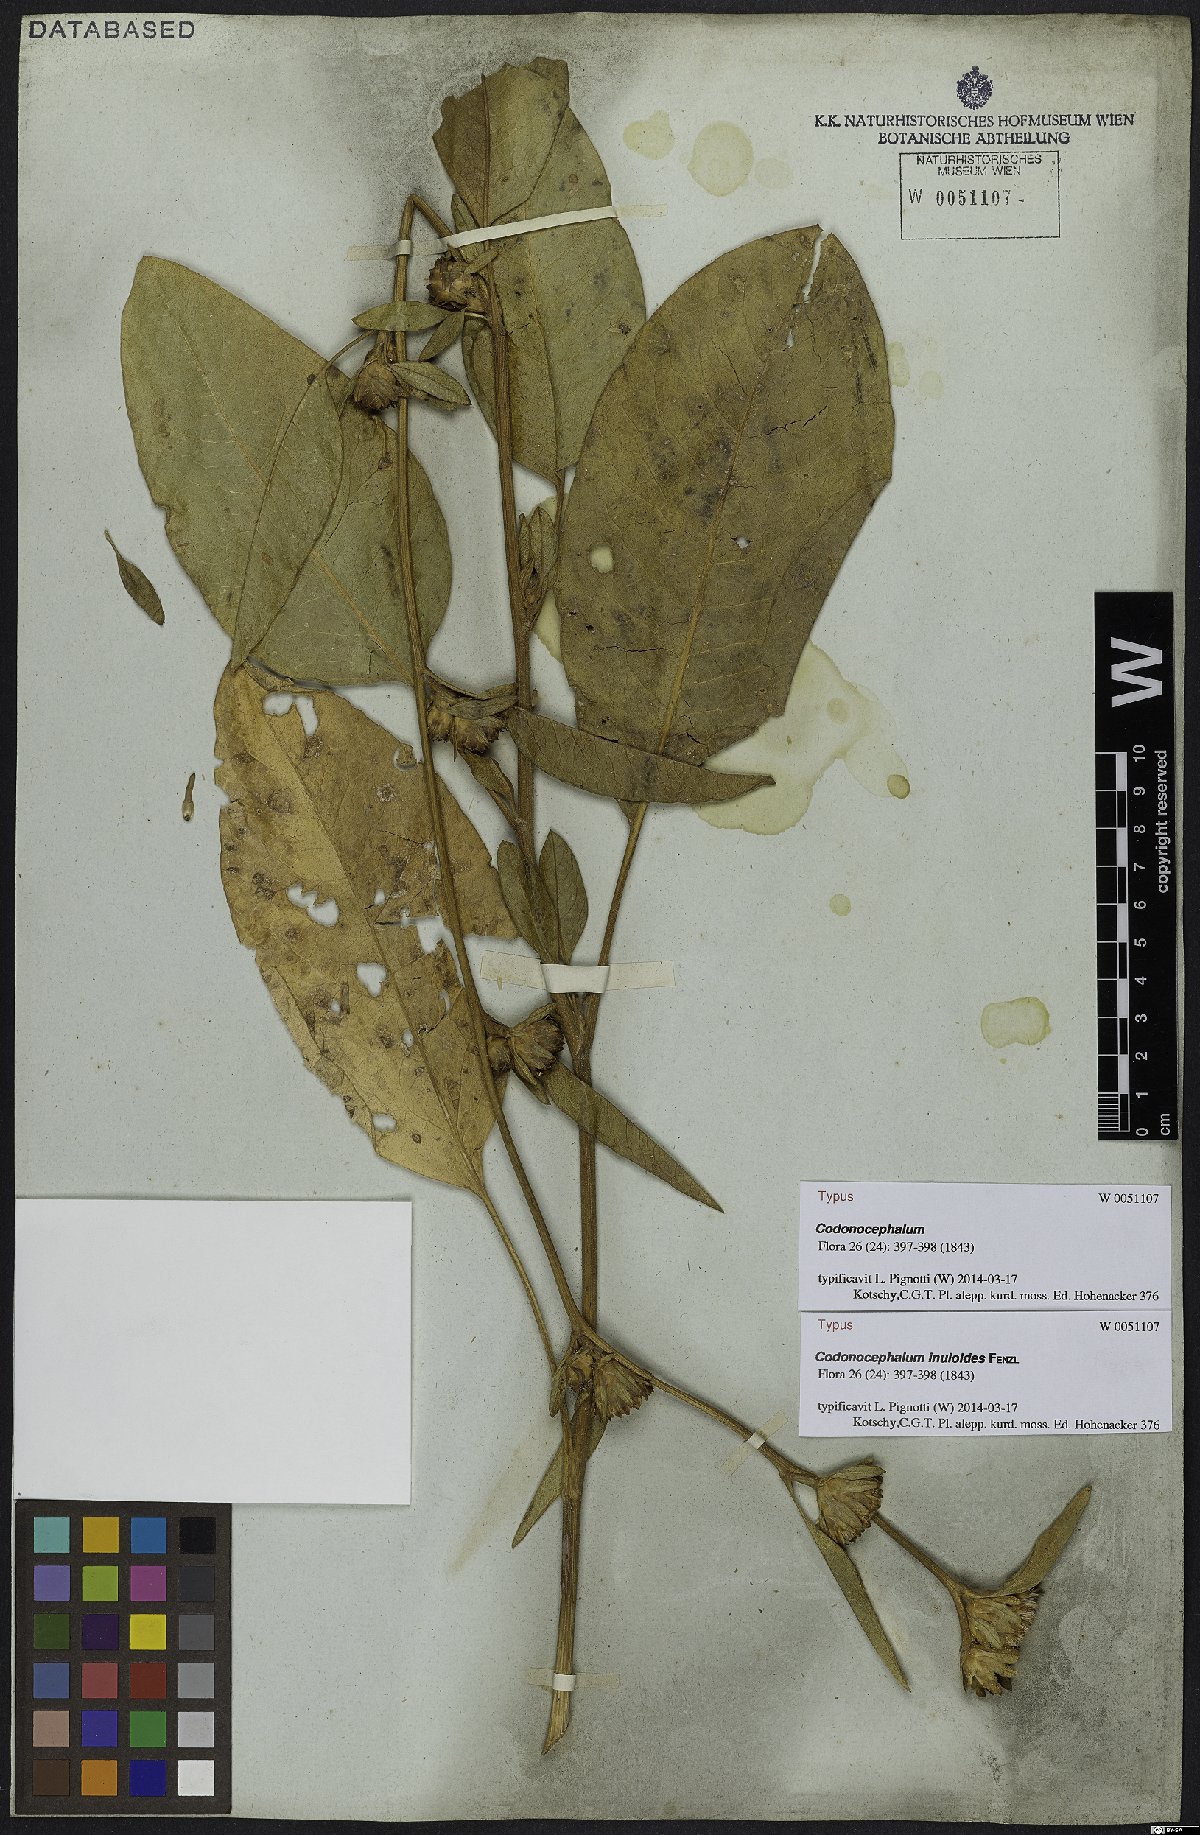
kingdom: Plantae
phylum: Tracheophyta
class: Magnoliopsida
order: Asterales
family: Asteraceae
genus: Inula
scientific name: Inula inuloides
